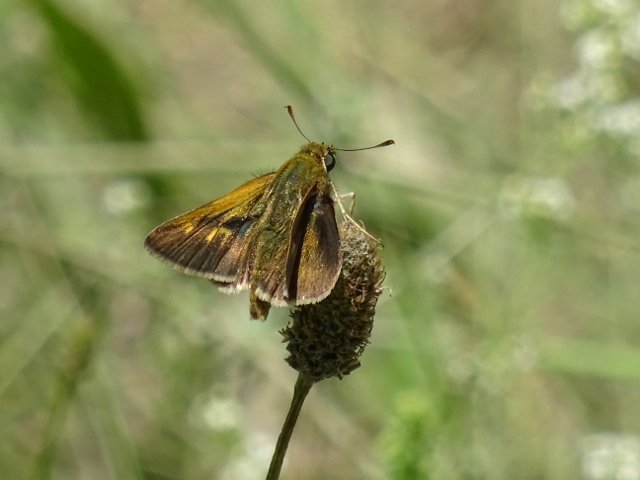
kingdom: Animalia
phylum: Arthropoda
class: Insecta
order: Lepidoptera
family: Hesperiidae
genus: Polites
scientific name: Polites
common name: Long Dash Skipper
